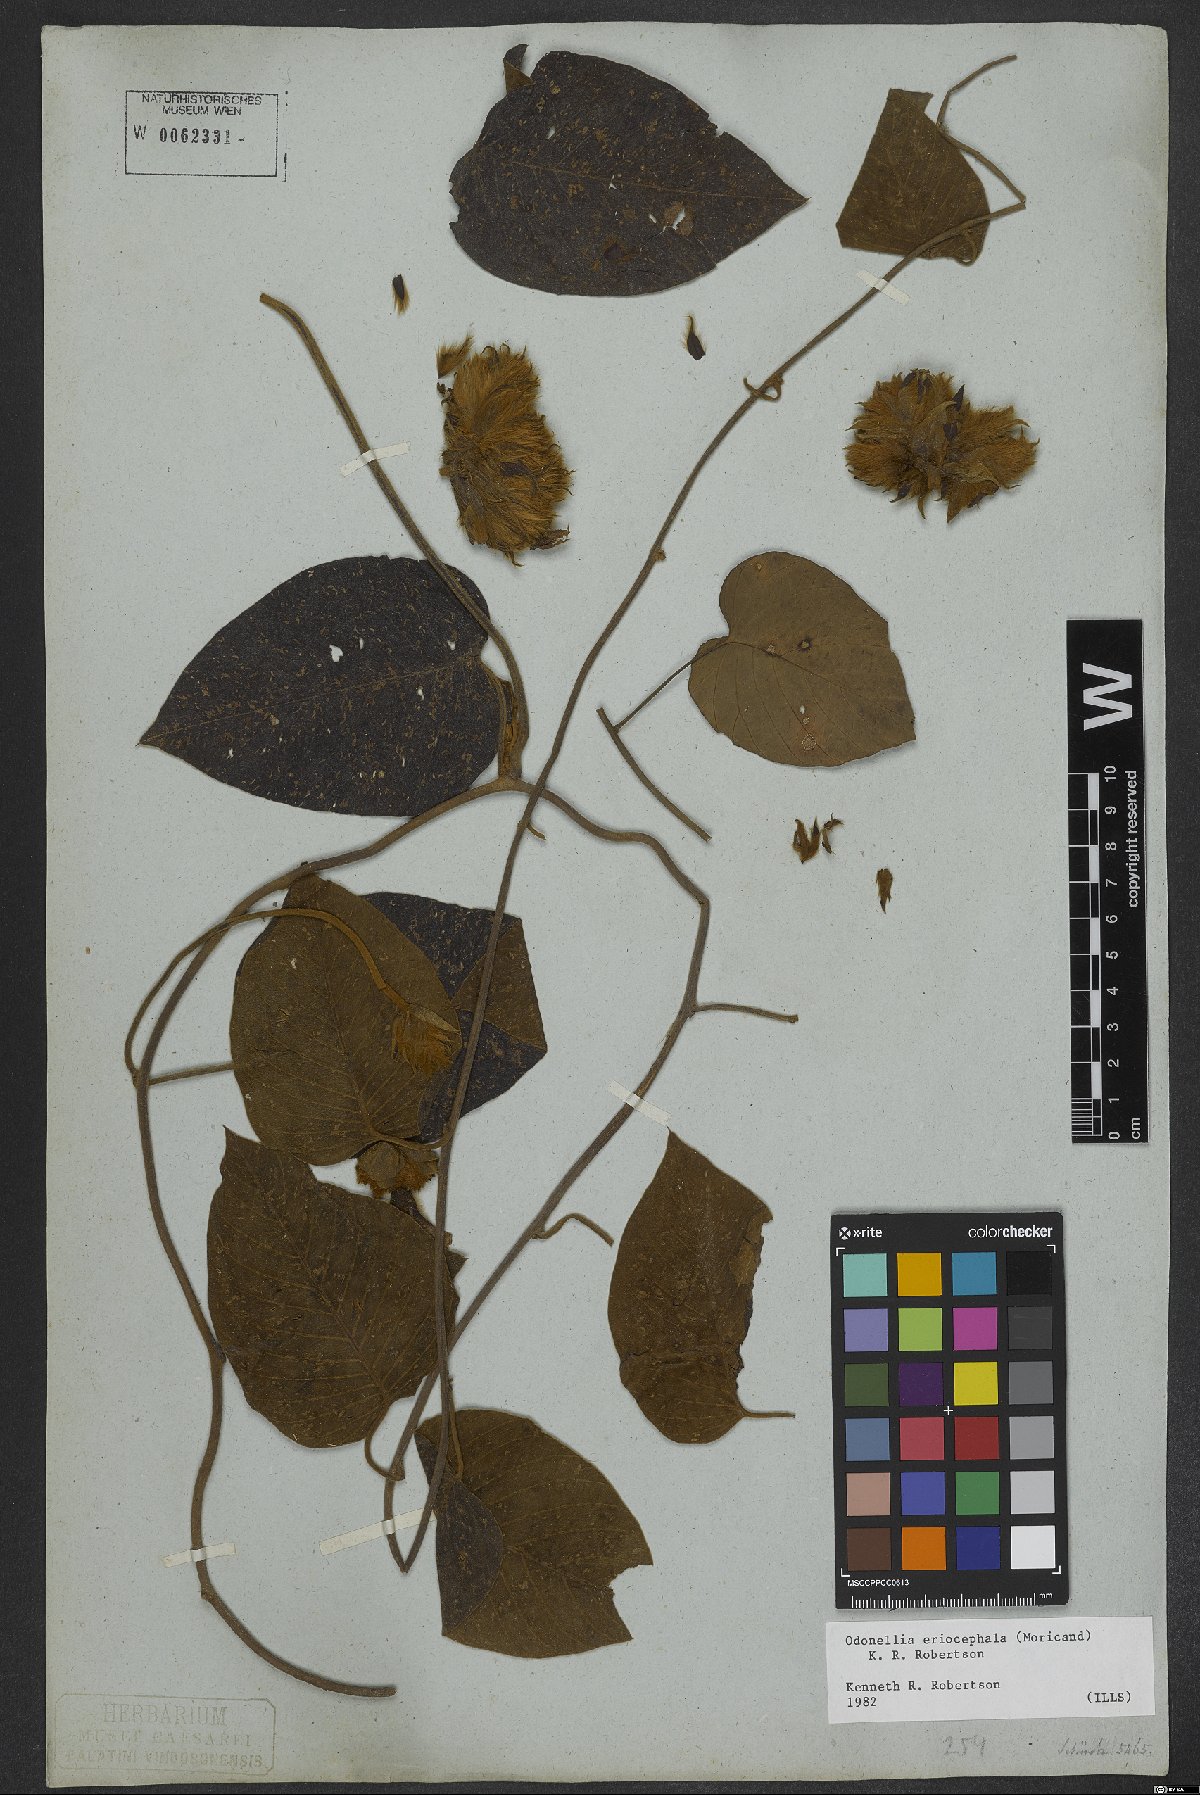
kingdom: Plantae
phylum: Tracheophyta
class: Magnoliopsida
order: Solanales
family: Convolvulaceae
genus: Odonellia
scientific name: Odonellia eriocephala
